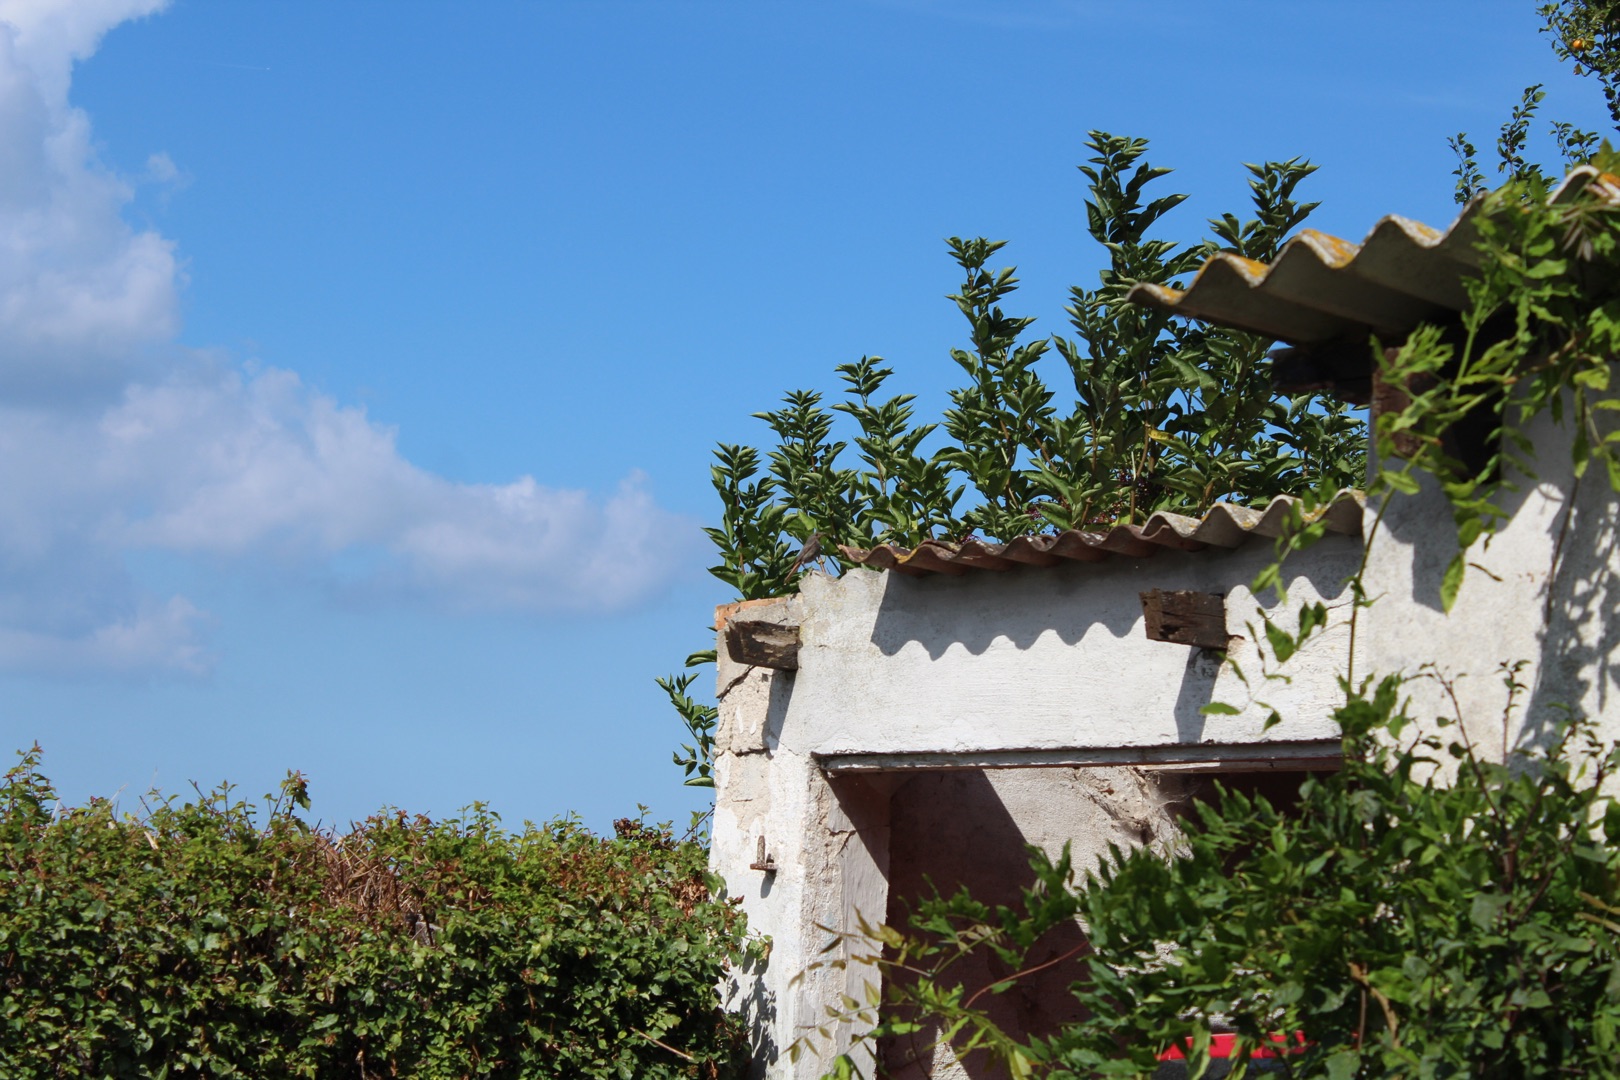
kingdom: Animalia
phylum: Chordata
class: Aves
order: Passeriformes
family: Muscicapidae
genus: Phoenicurus
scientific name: Phoenicurus ochruros
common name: Husrødstjert
